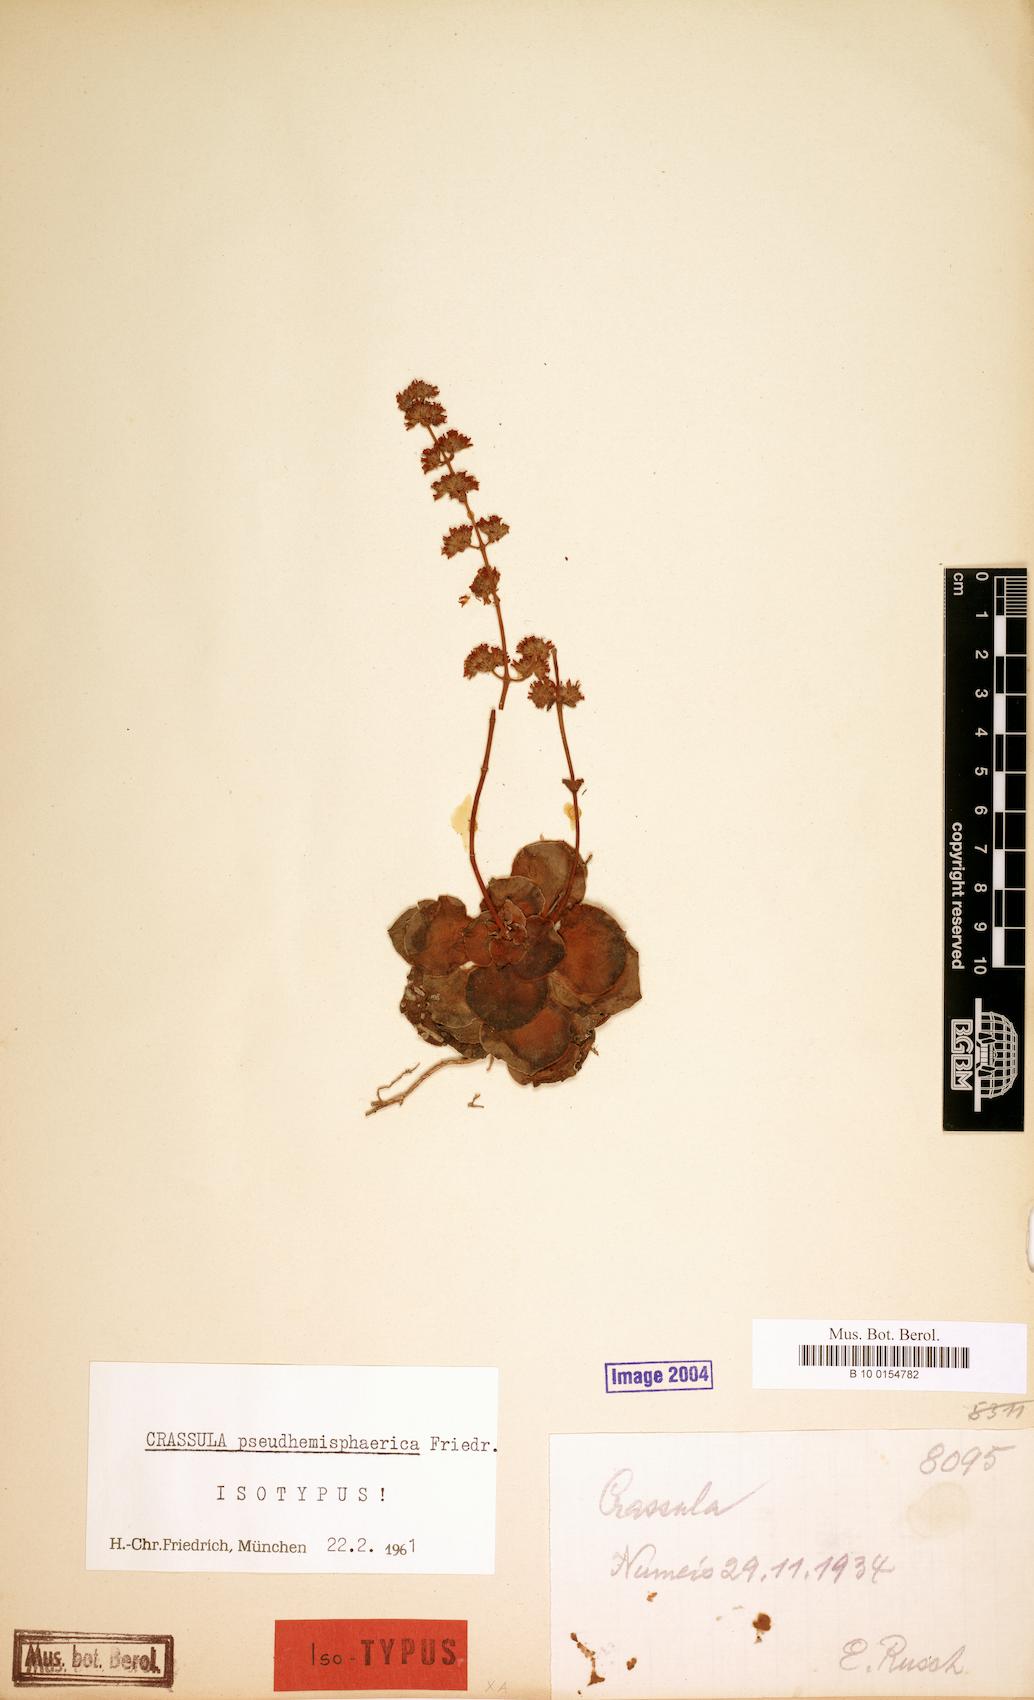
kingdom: Plantae
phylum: Tracheophyta
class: Magnoliopsida
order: Saxifragales
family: Crassulaceae
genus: Crassula
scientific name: Crassula pseudhemisphaerica
